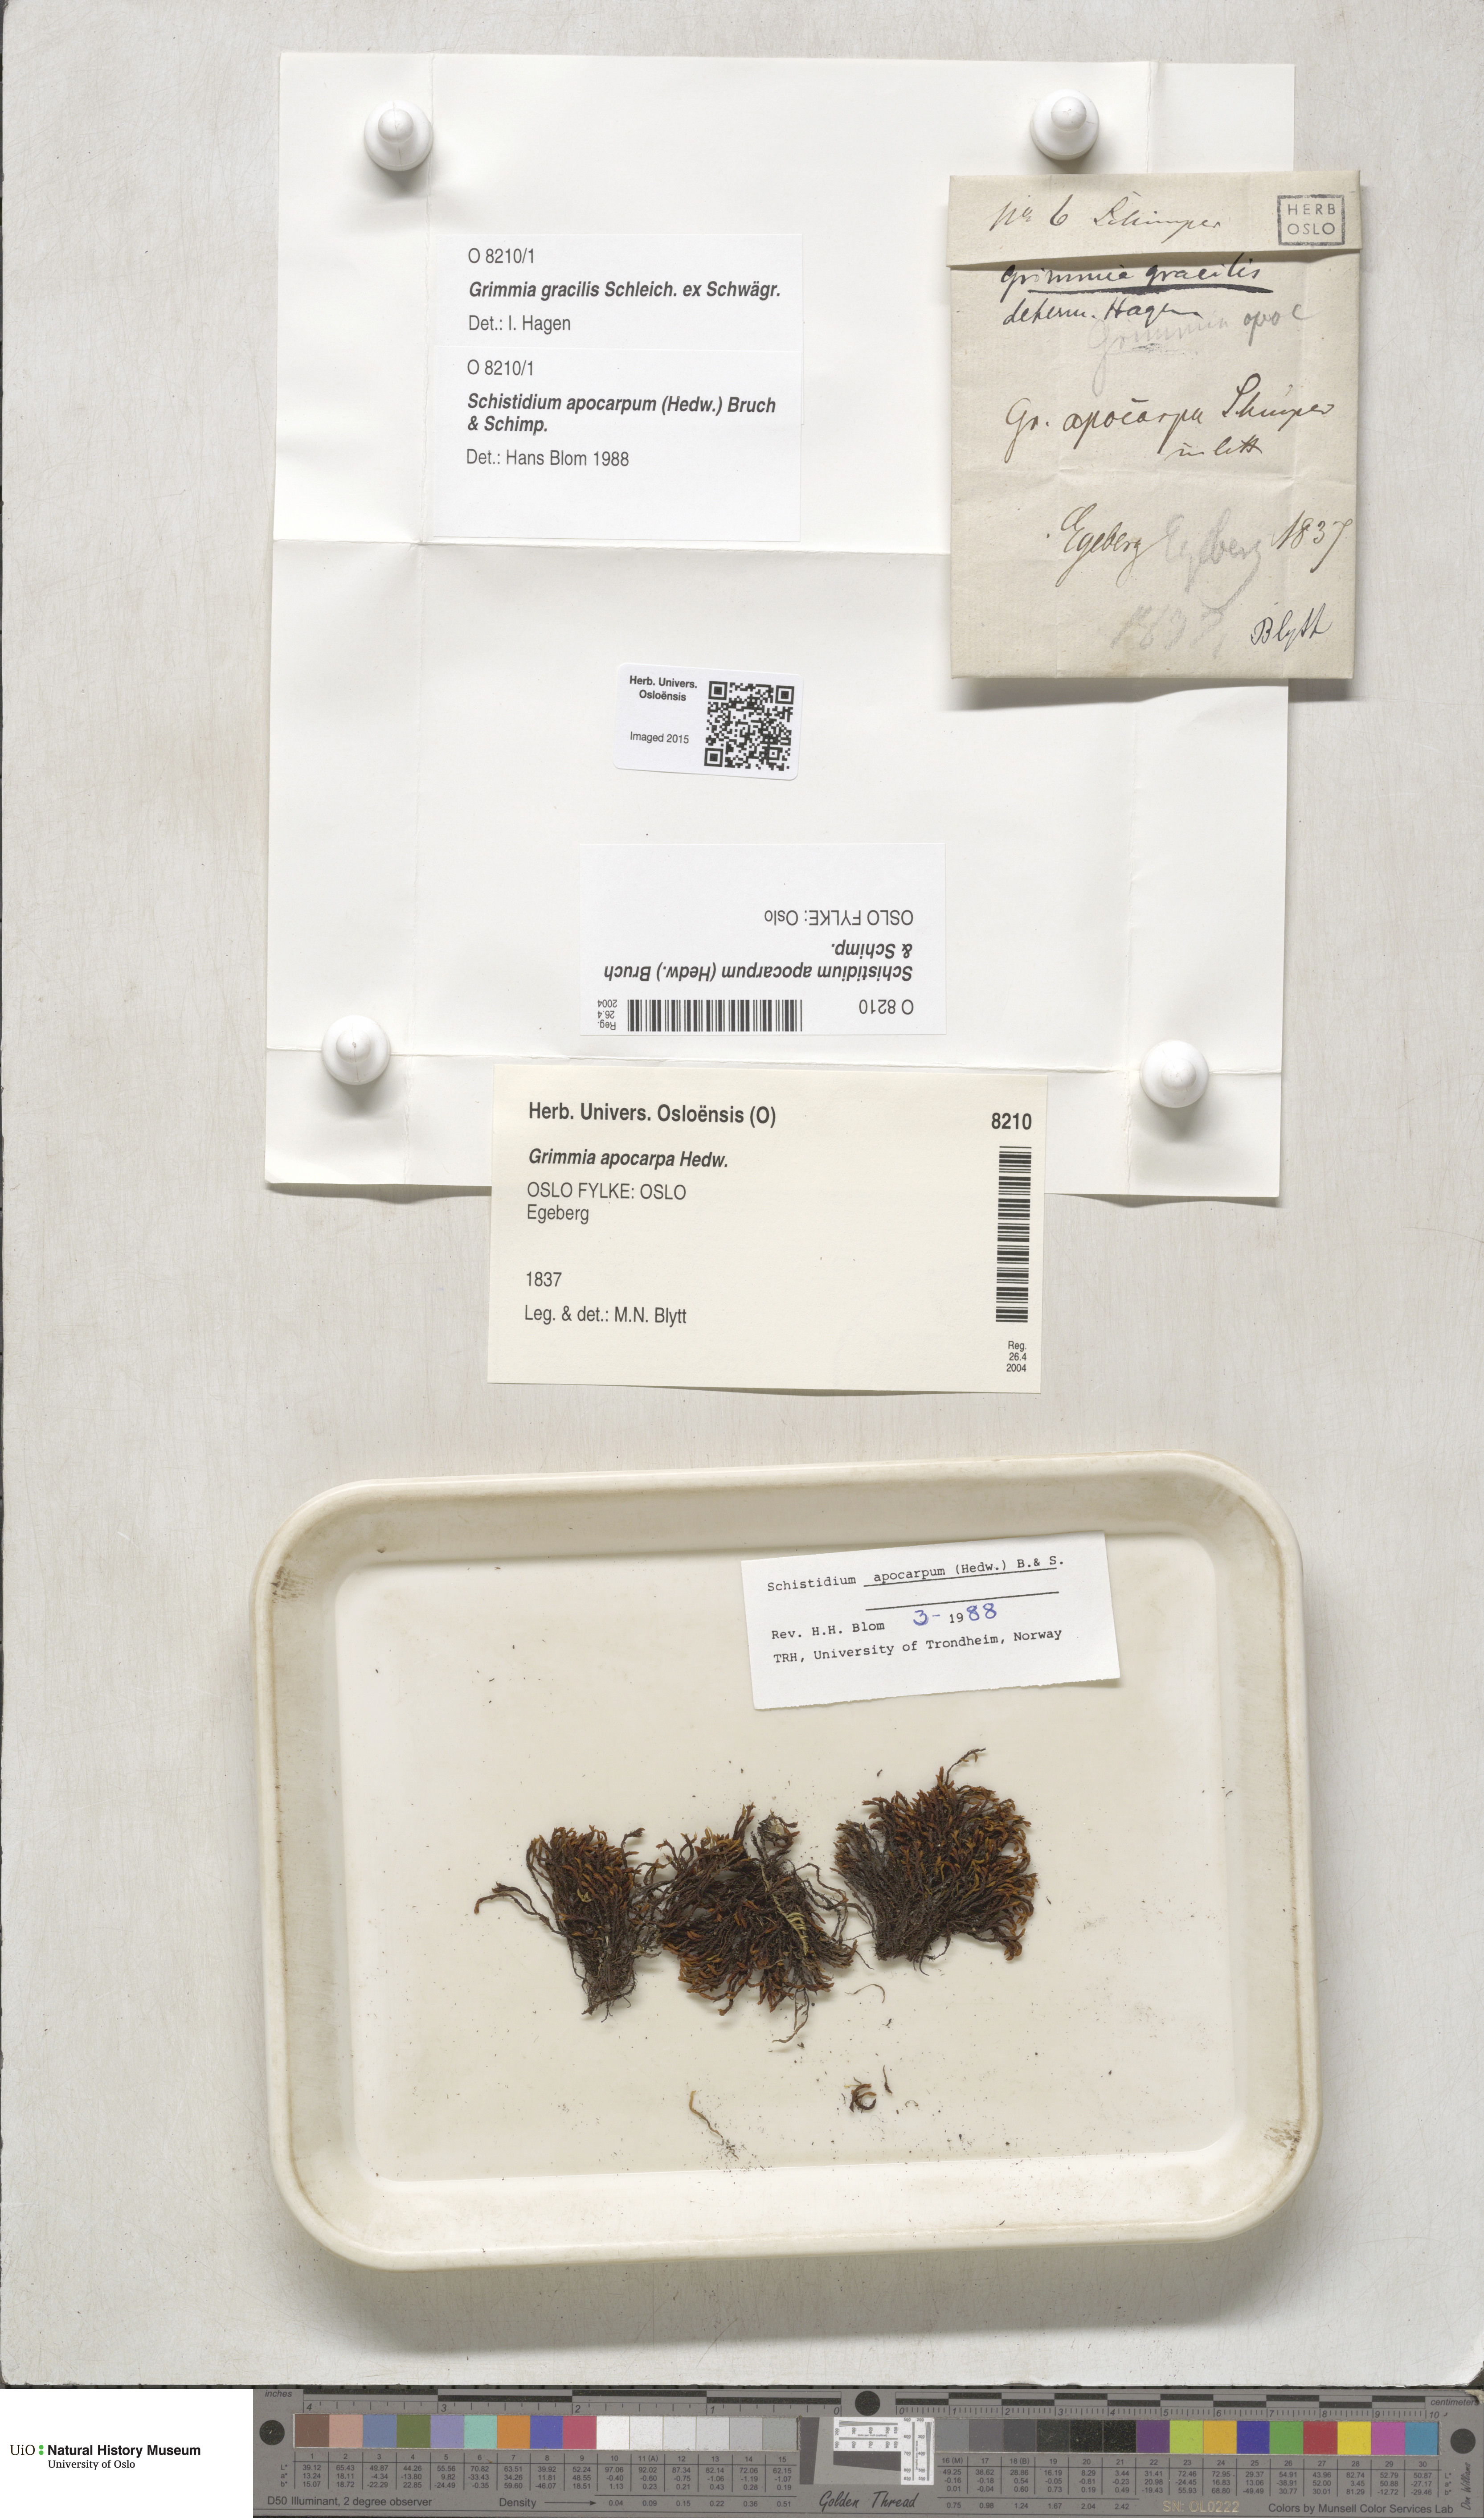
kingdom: Plantae
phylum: Bryophyta
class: Bryopsida
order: Grimmiales
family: Grimmiaceae
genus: Schistidium
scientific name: Schistidium apocarpum
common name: Radiate bloom moss
